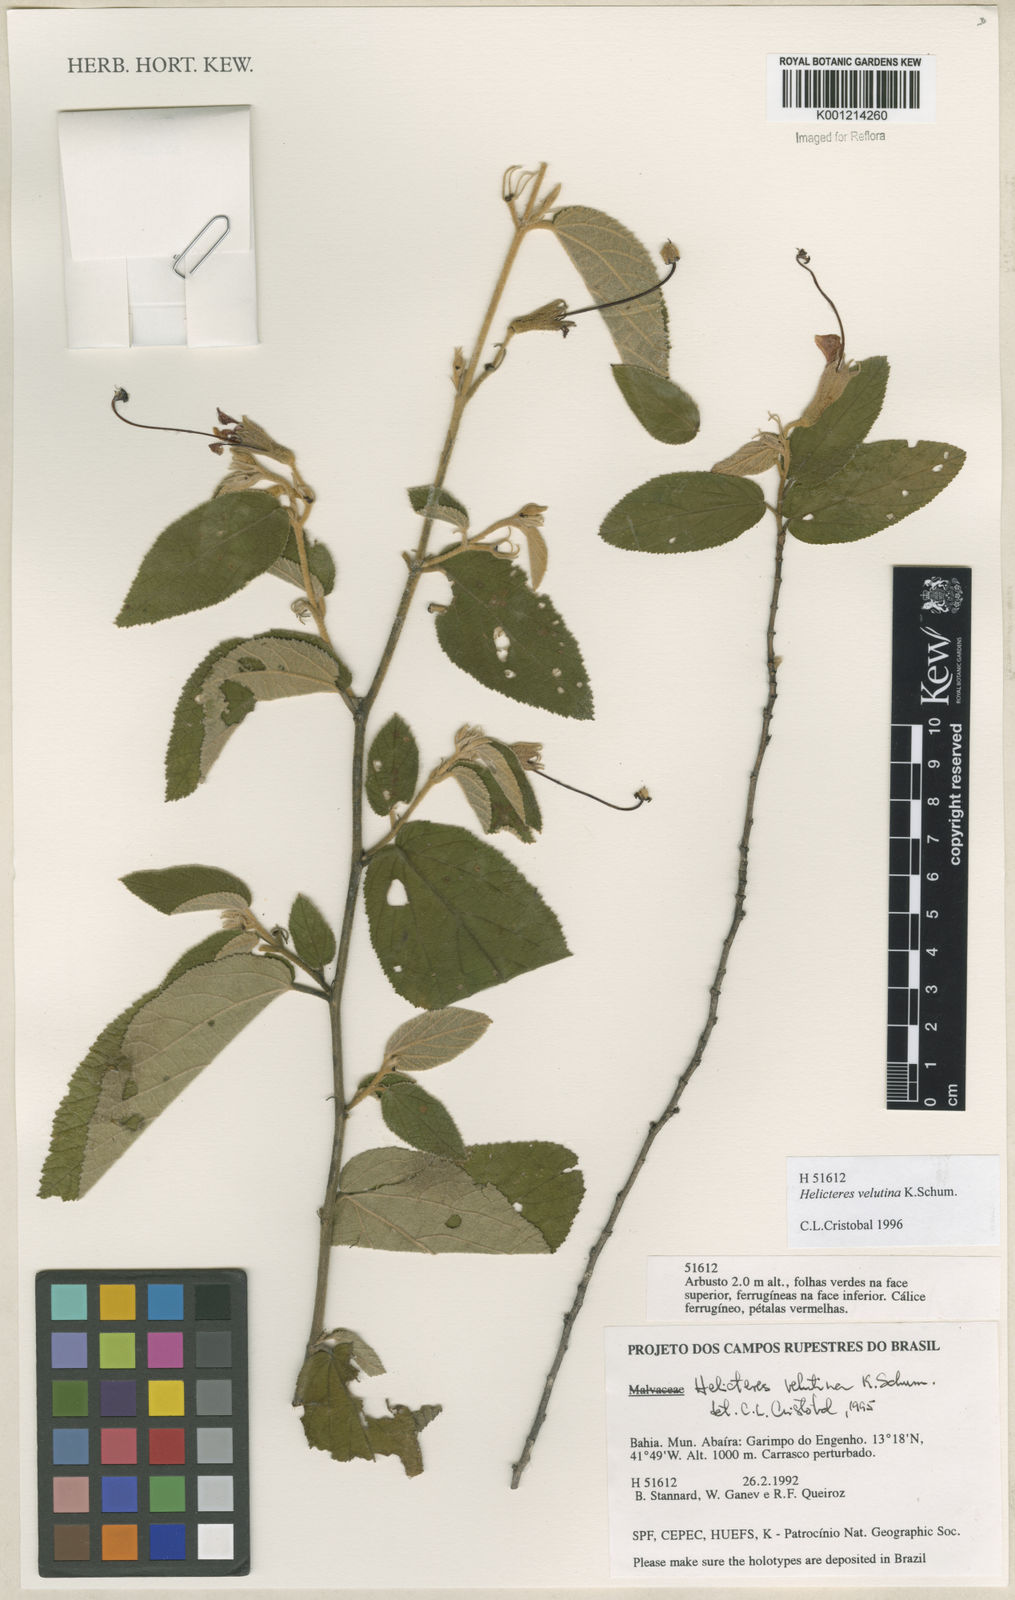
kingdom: Plantae
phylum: Tracheophyta
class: Magnoliopsida
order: Malvales
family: Malvaceae
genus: Helicteres
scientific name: Helicteres velutina
